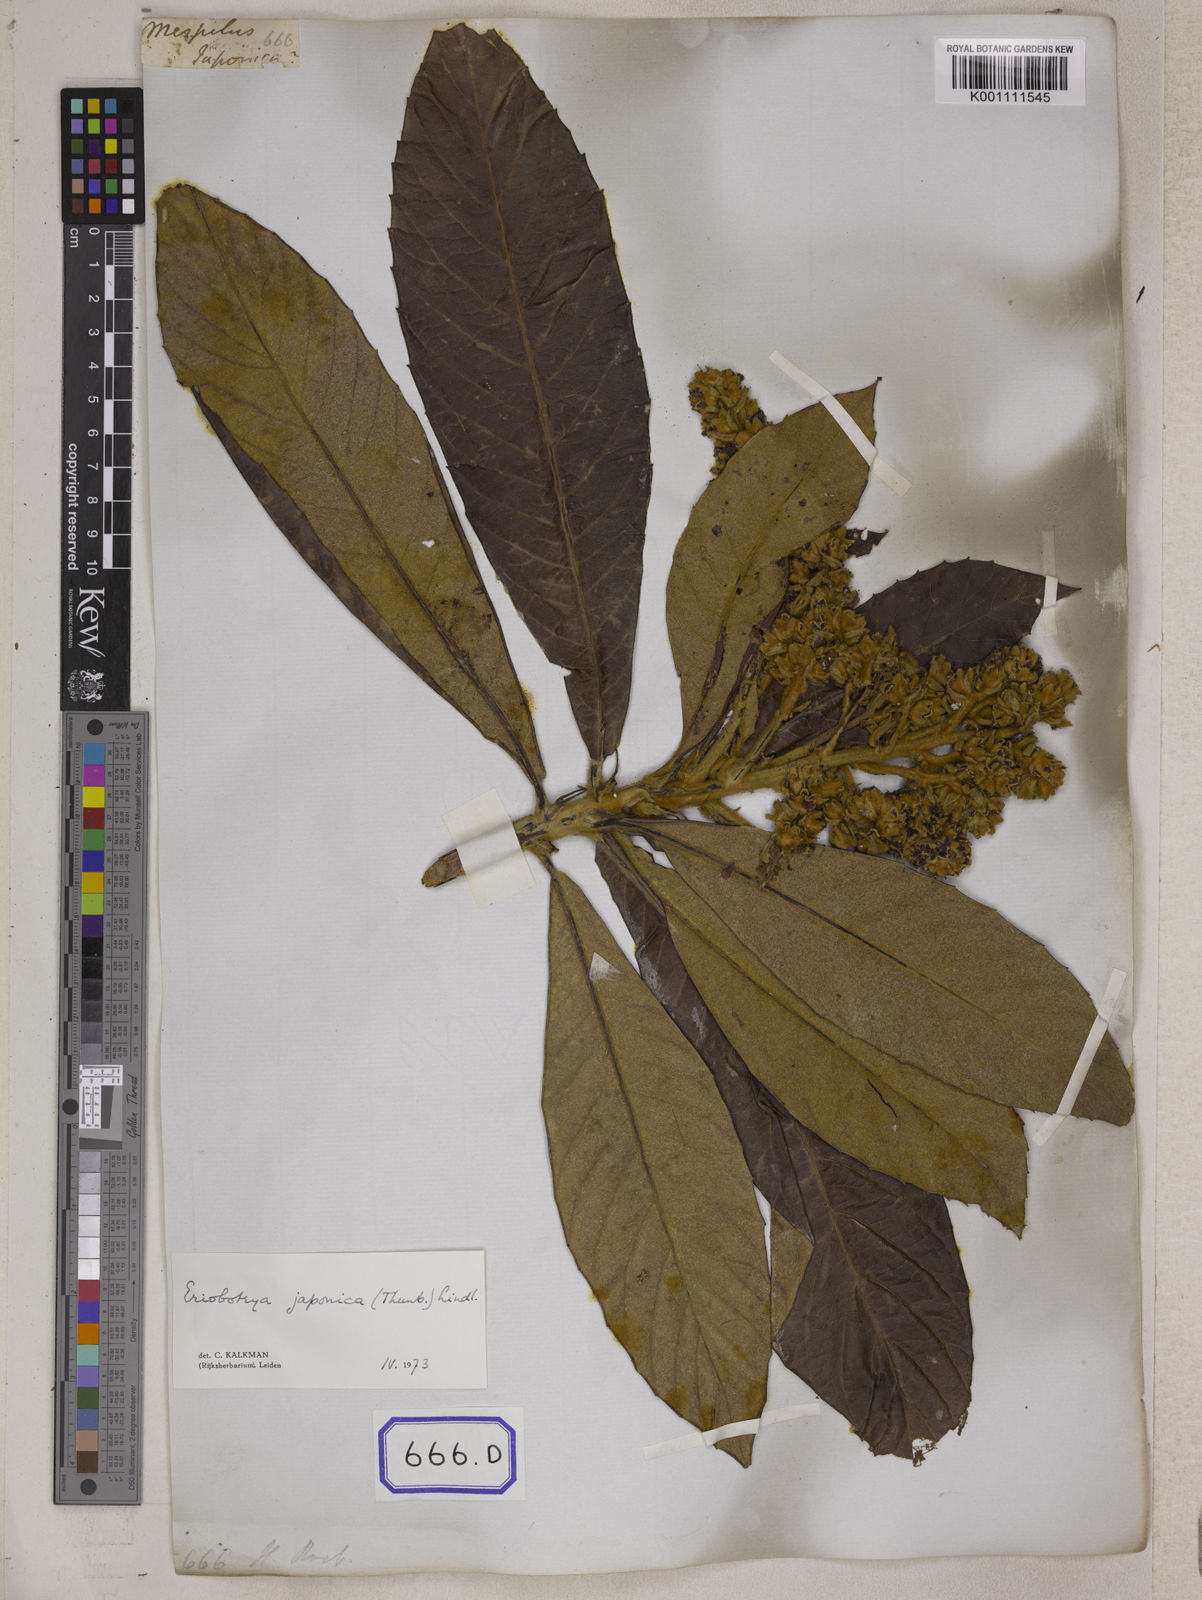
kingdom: Plantae
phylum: Tracheophyta
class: Magnoliopsida
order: Rosales
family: Rosaceae
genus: Rhaphiolepis
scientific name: Rhaphiolepis bibas
